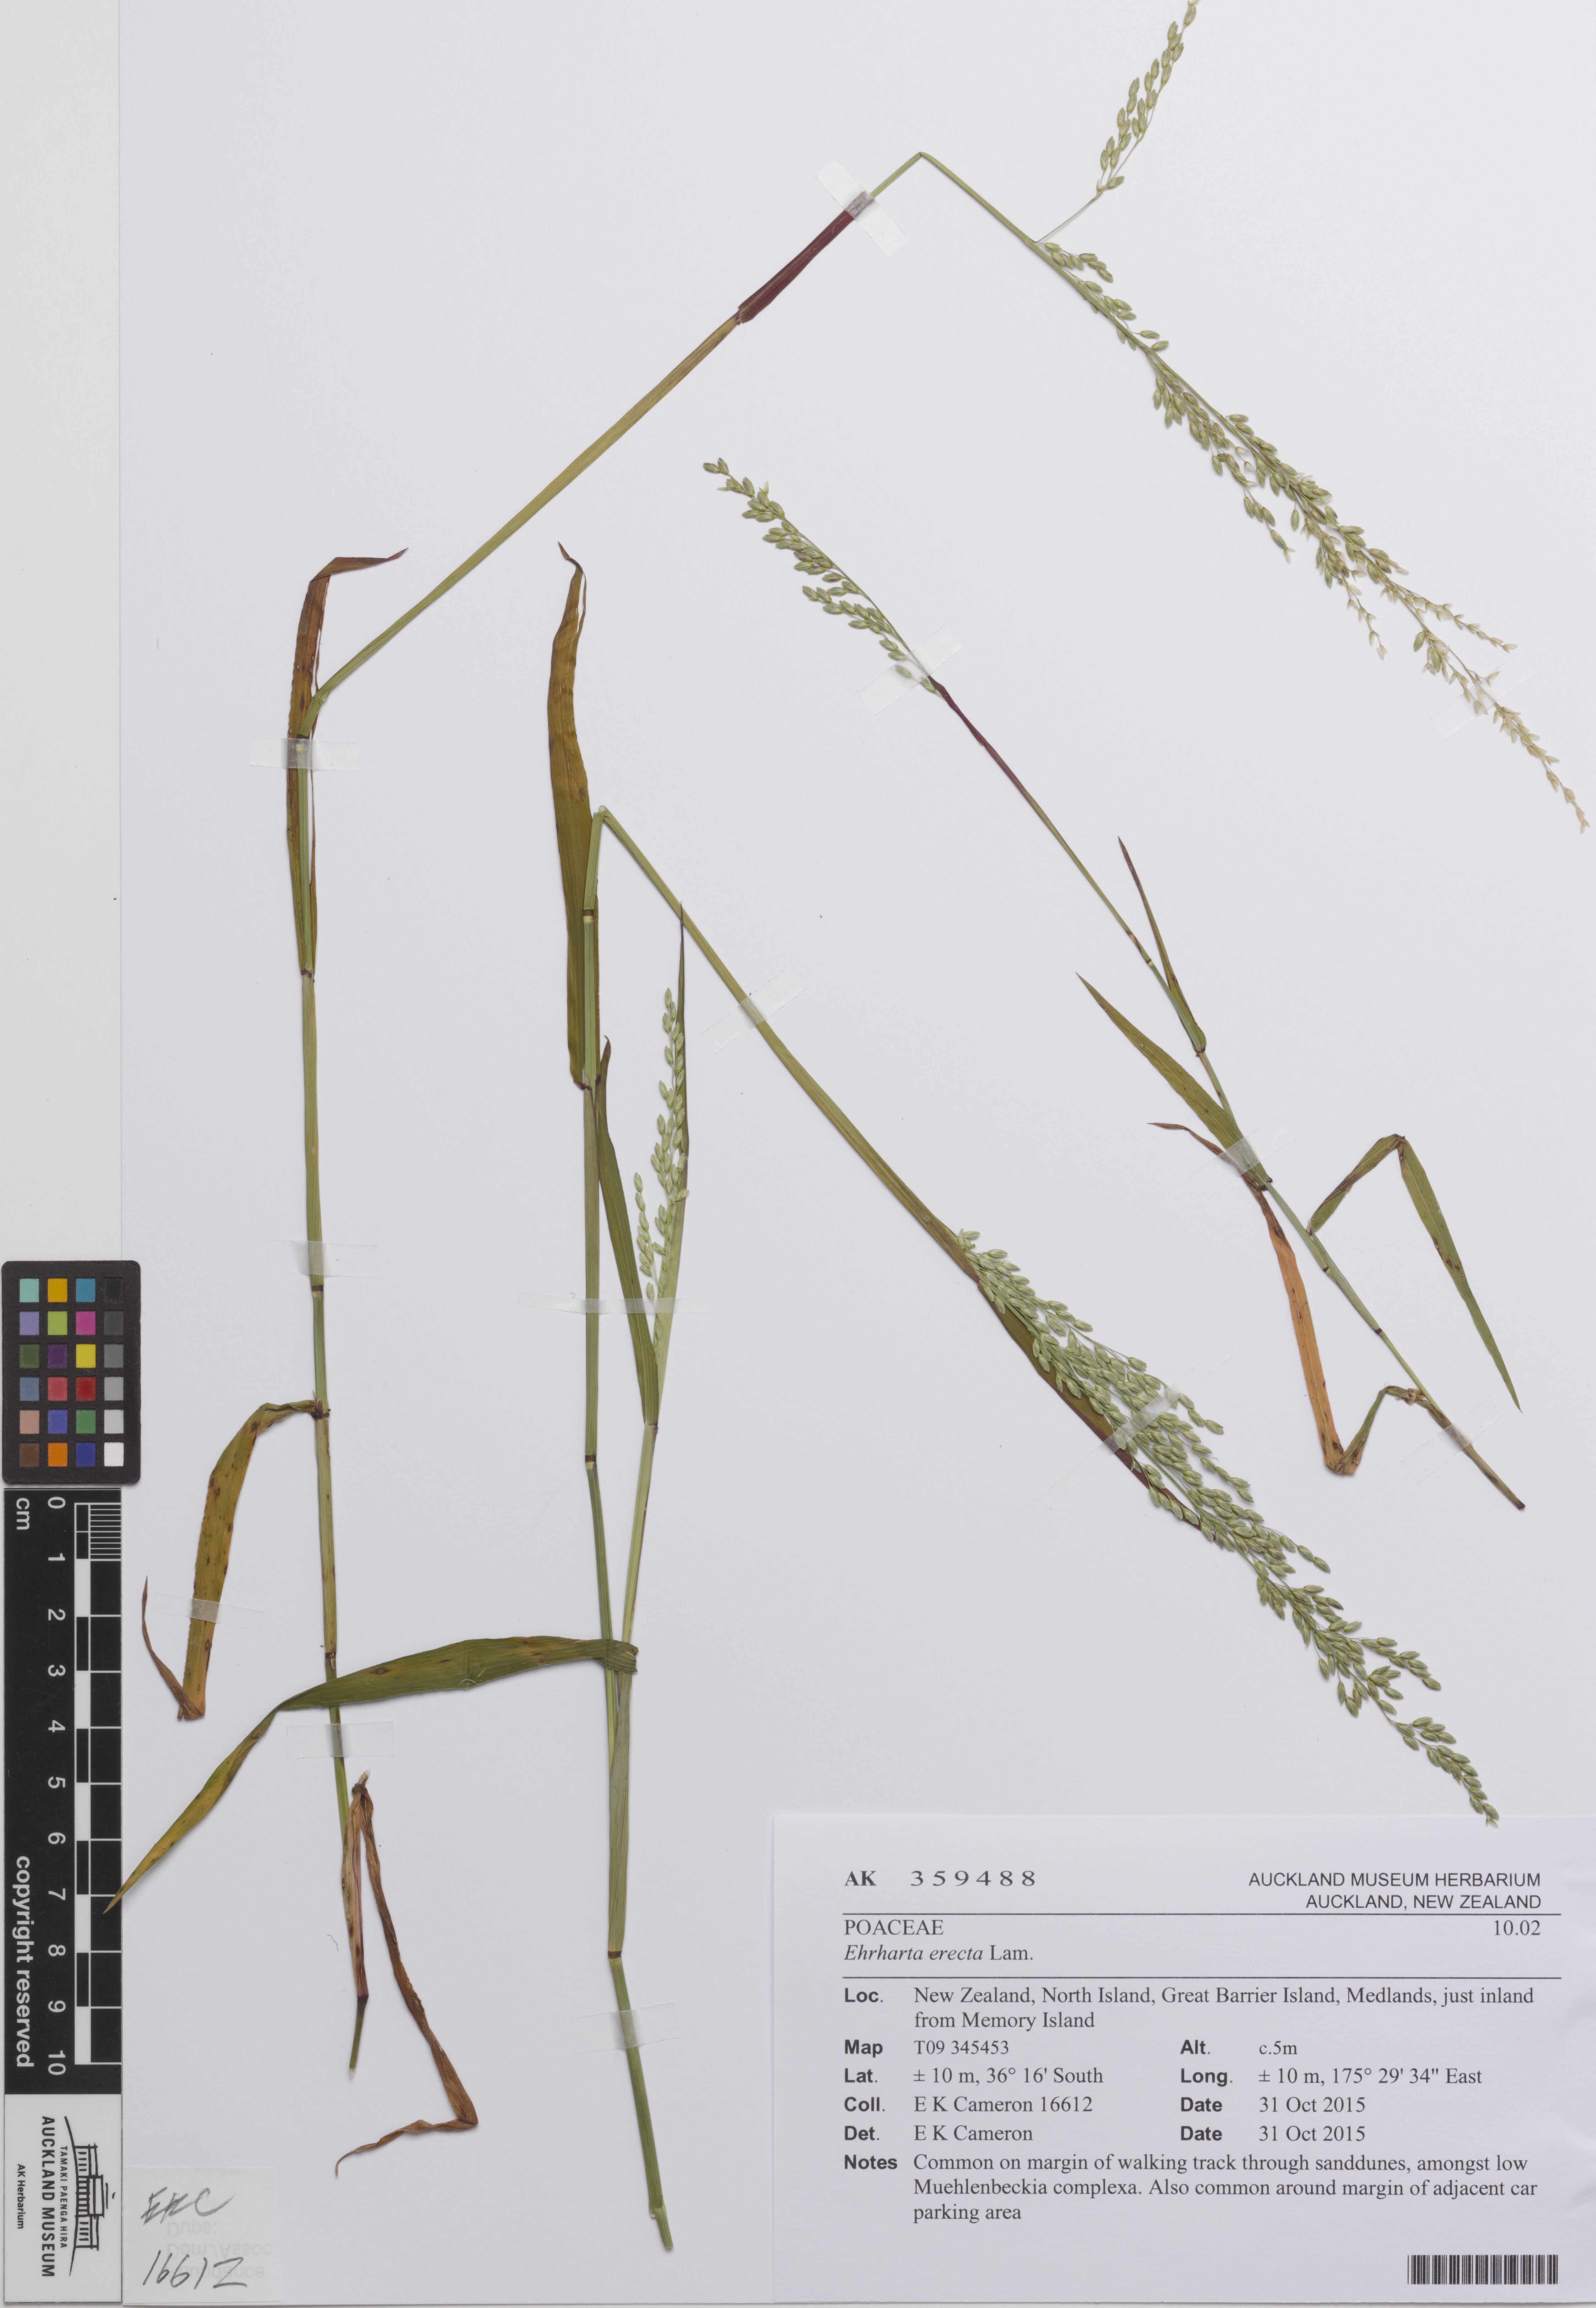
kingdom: Plantae
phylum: Tracheophyta
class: Liliopsida
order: Poales
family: Poaceae
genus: Ehrharta
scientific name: Ehrharta erecta
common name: Panic veldtgrass
